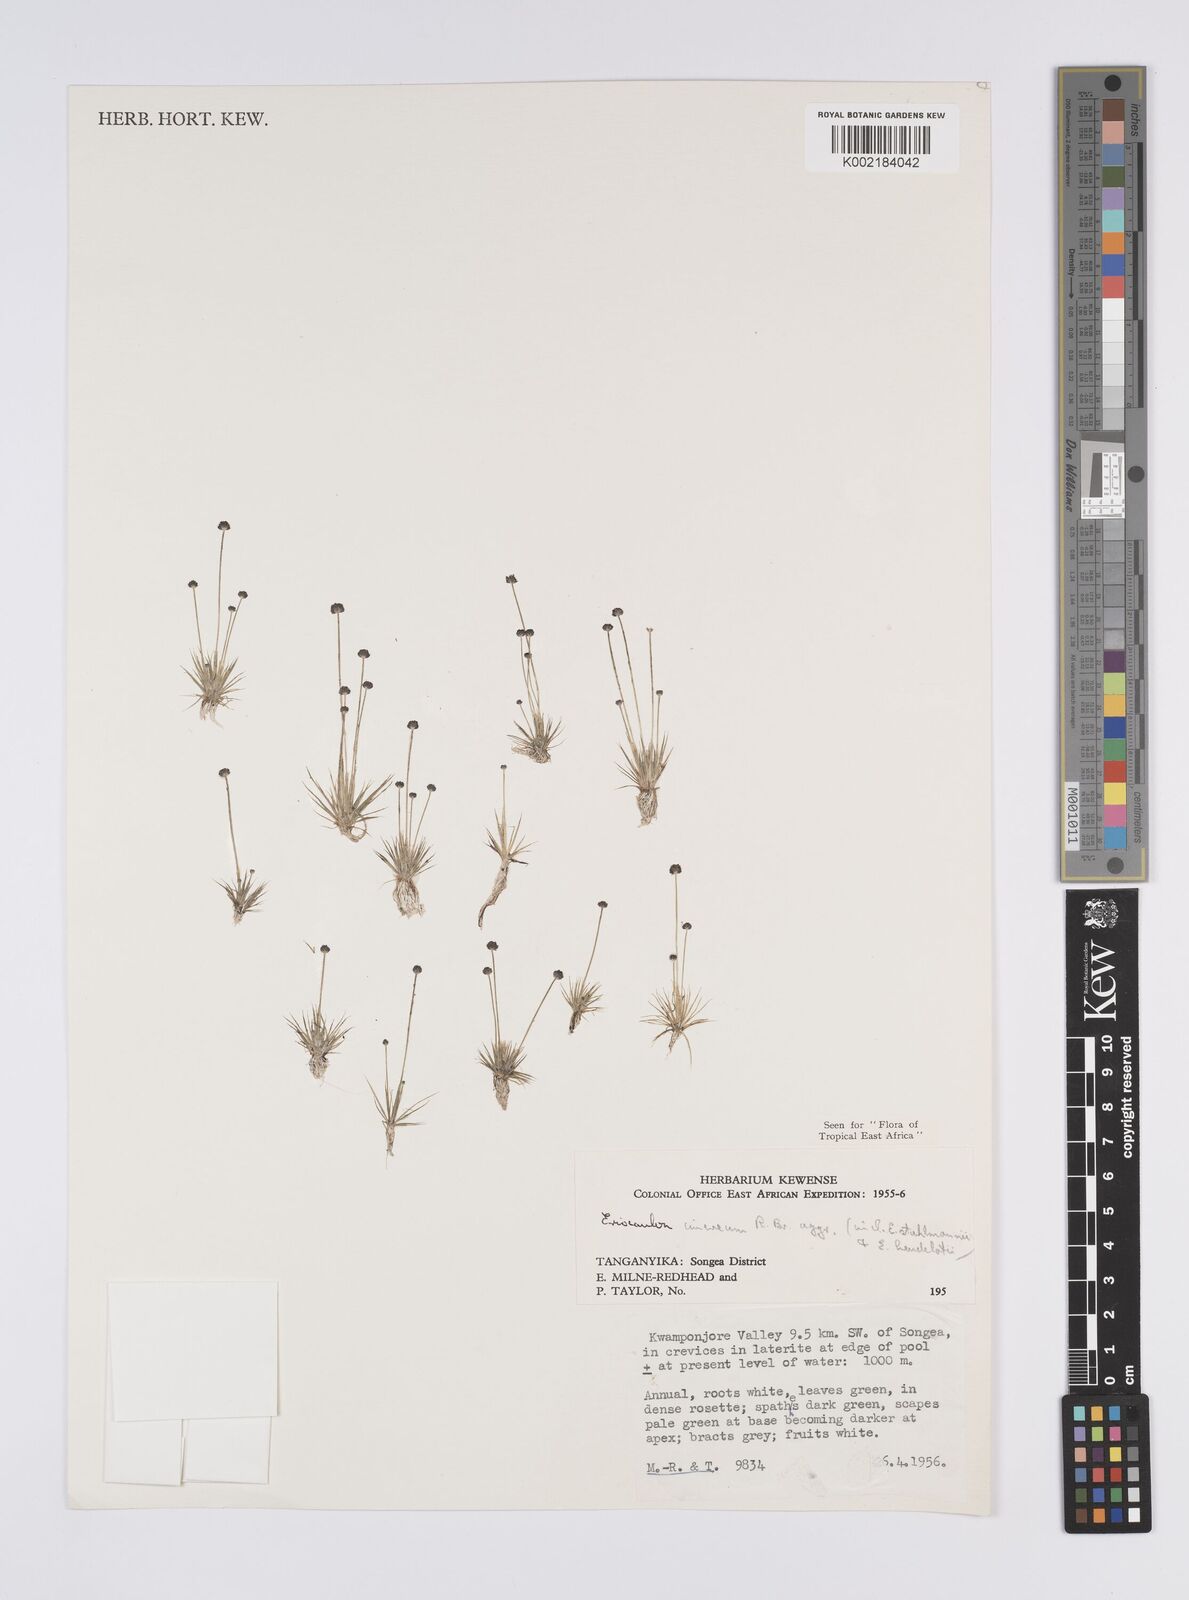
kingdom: Plantae
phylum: Tracheophyta
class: Liliopsida
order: Poales
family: Eriocaulaceae
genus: Eriocaulon
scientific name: Eriocaulon cinereum
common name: Ashy pipewort
